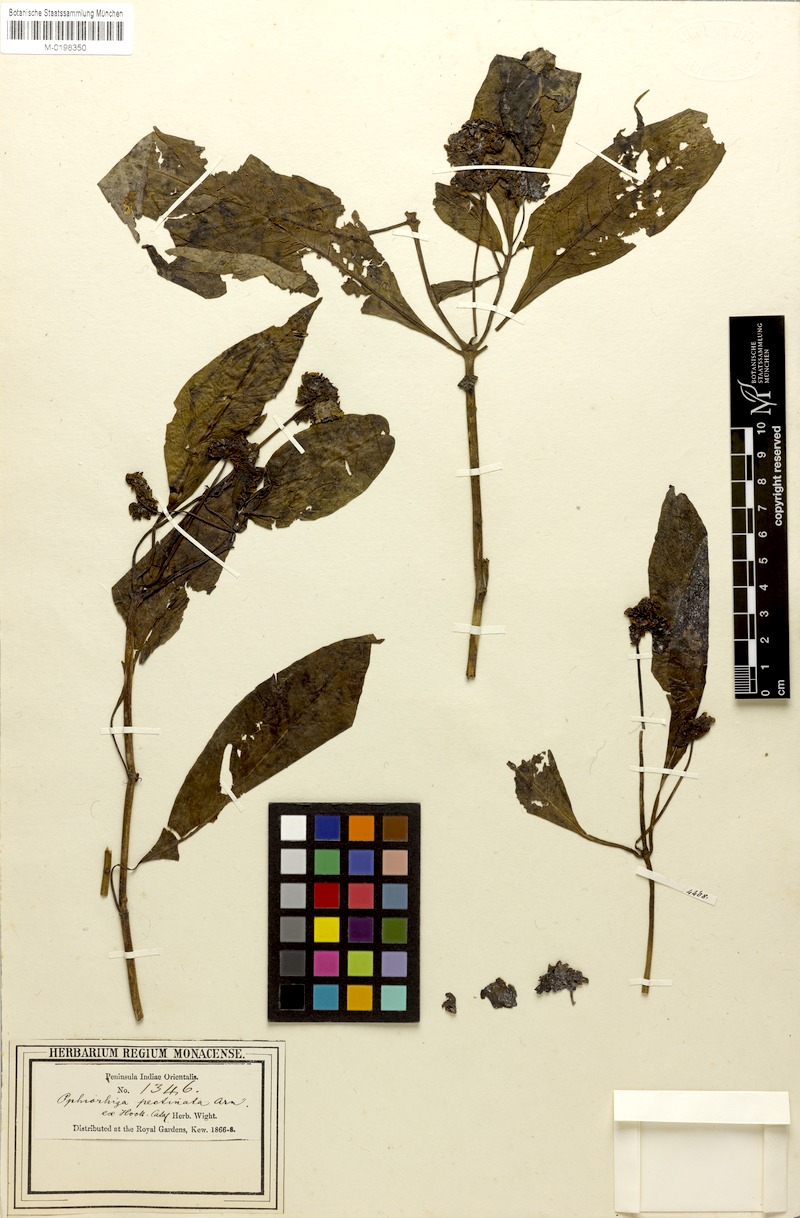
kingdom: Plantae
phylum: Tracheophyta
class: Magnoliopsida
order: Gentianales
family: Rubiaceae
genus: Ophiorrhiza
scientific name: Ophiorrhiza pectinata
